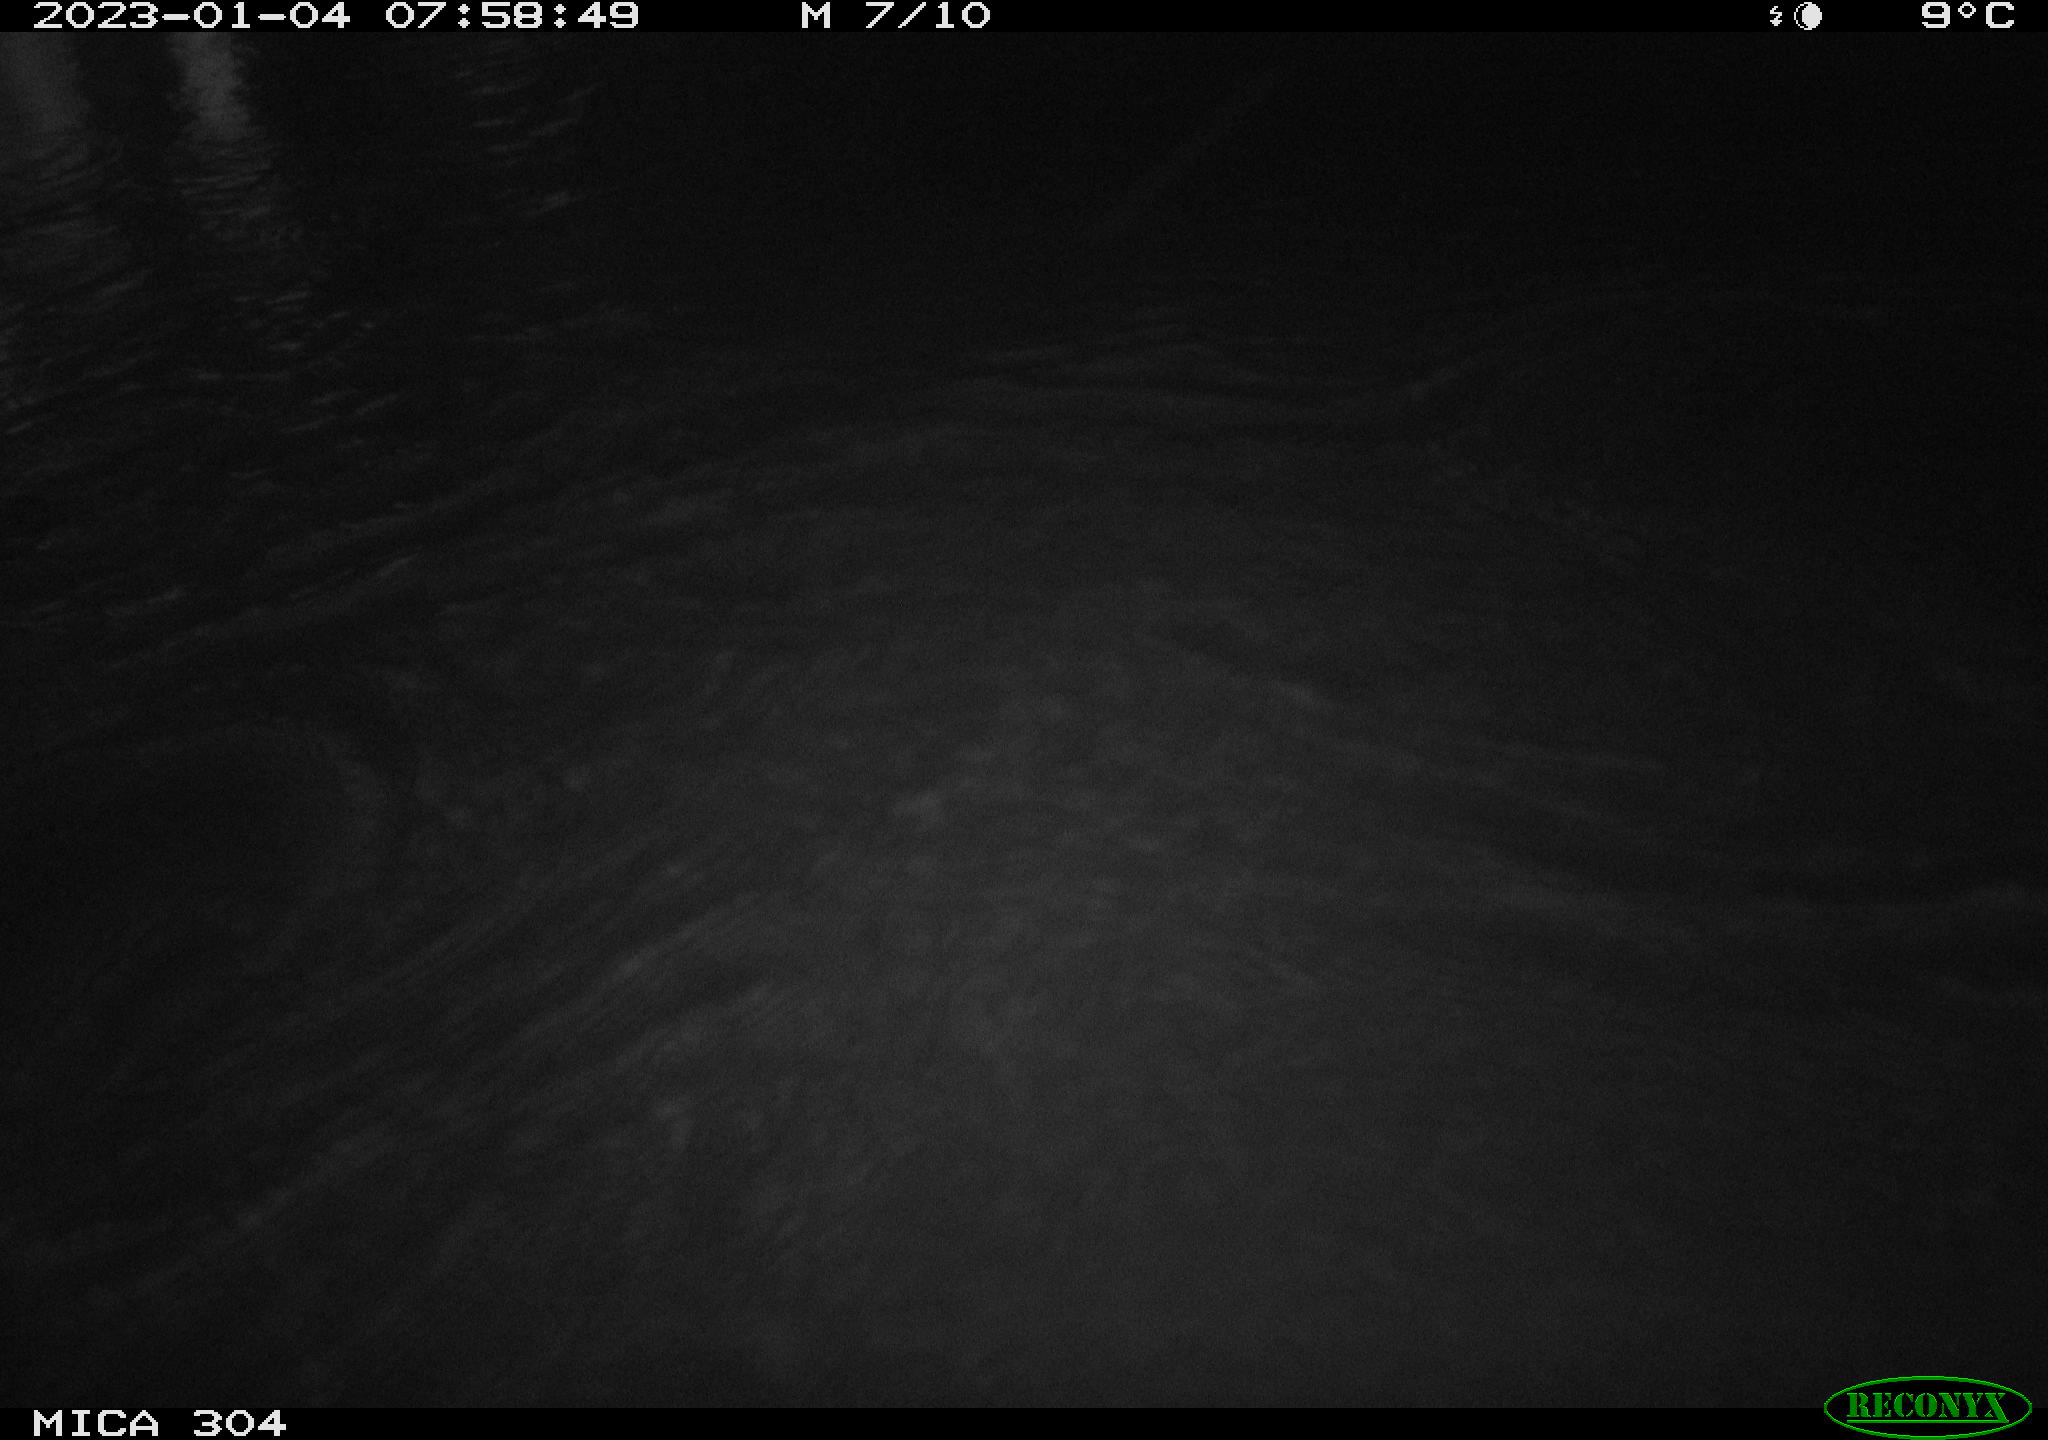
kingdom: Animalia
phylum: Chordata
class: Aves
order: Anseriformes
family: Anatidae
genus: Anas
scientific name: Anas
